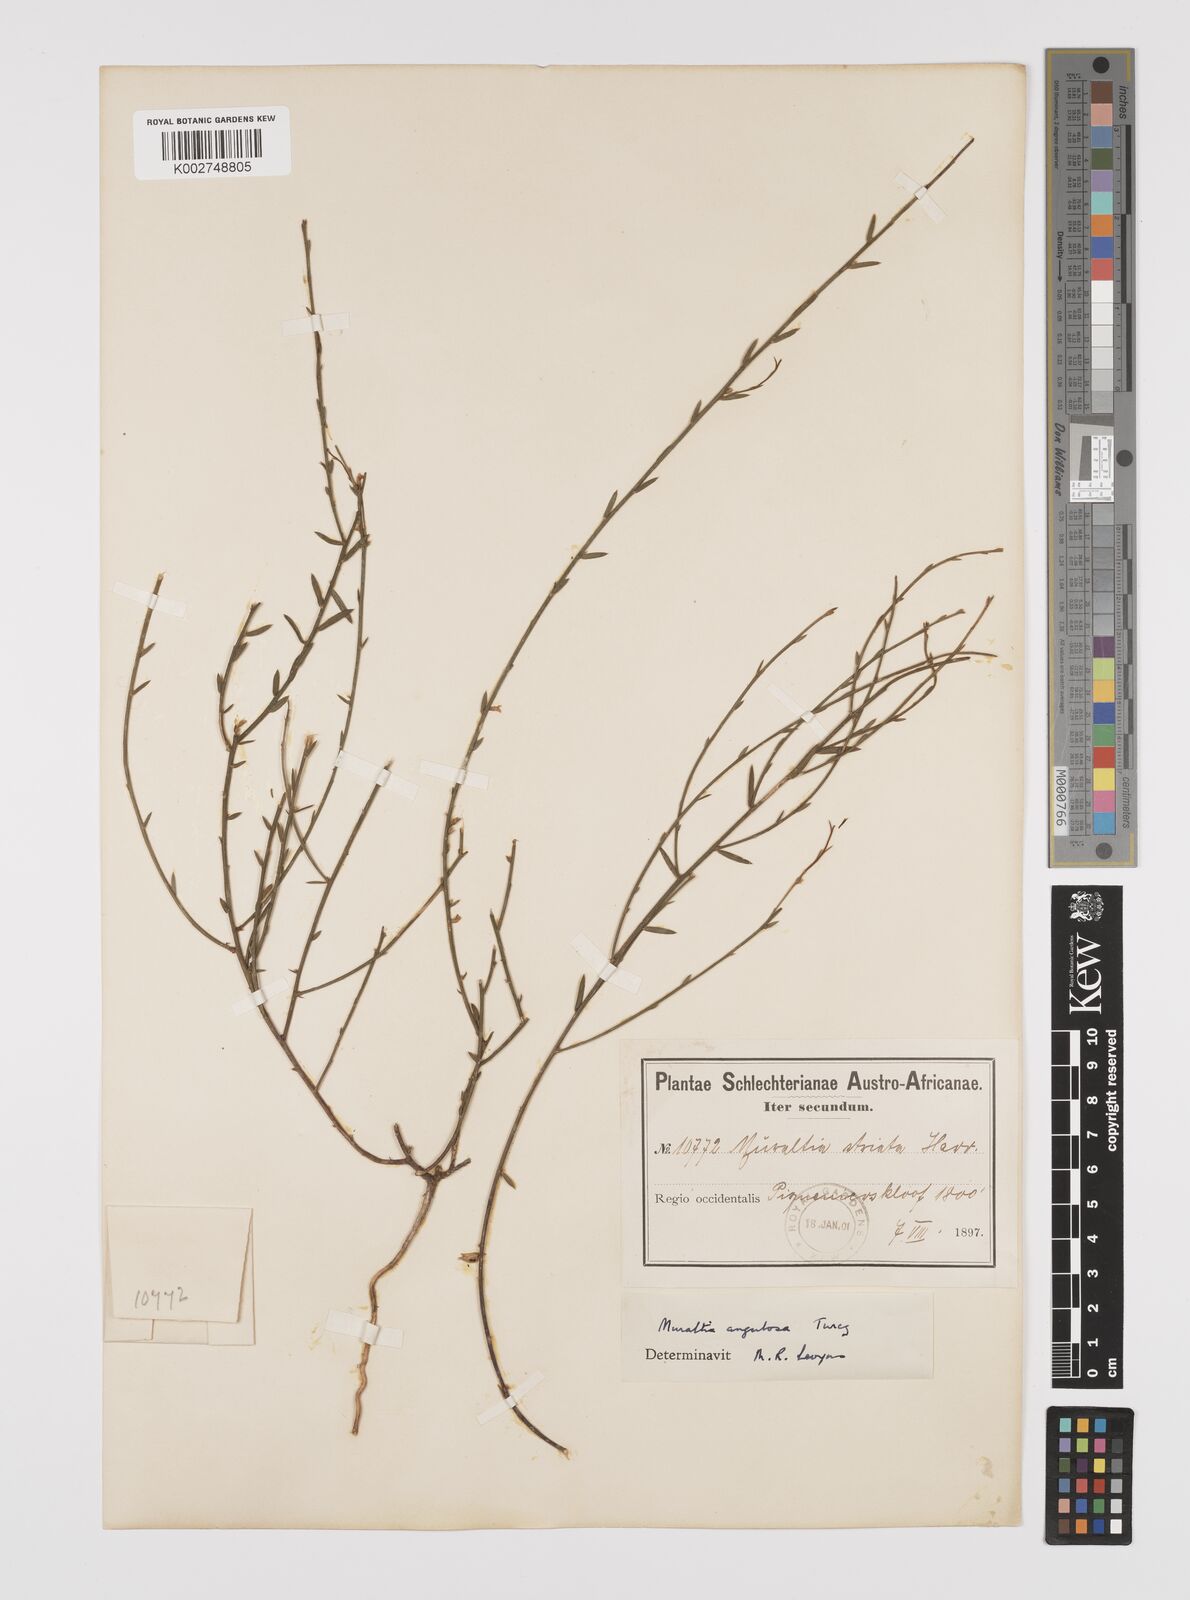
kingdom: Plantae
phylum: Tracheophyta
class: Magnoliopsida
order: Fabales
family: Polygalaceae
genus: Muraltia
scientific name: Muraltia angulosa
